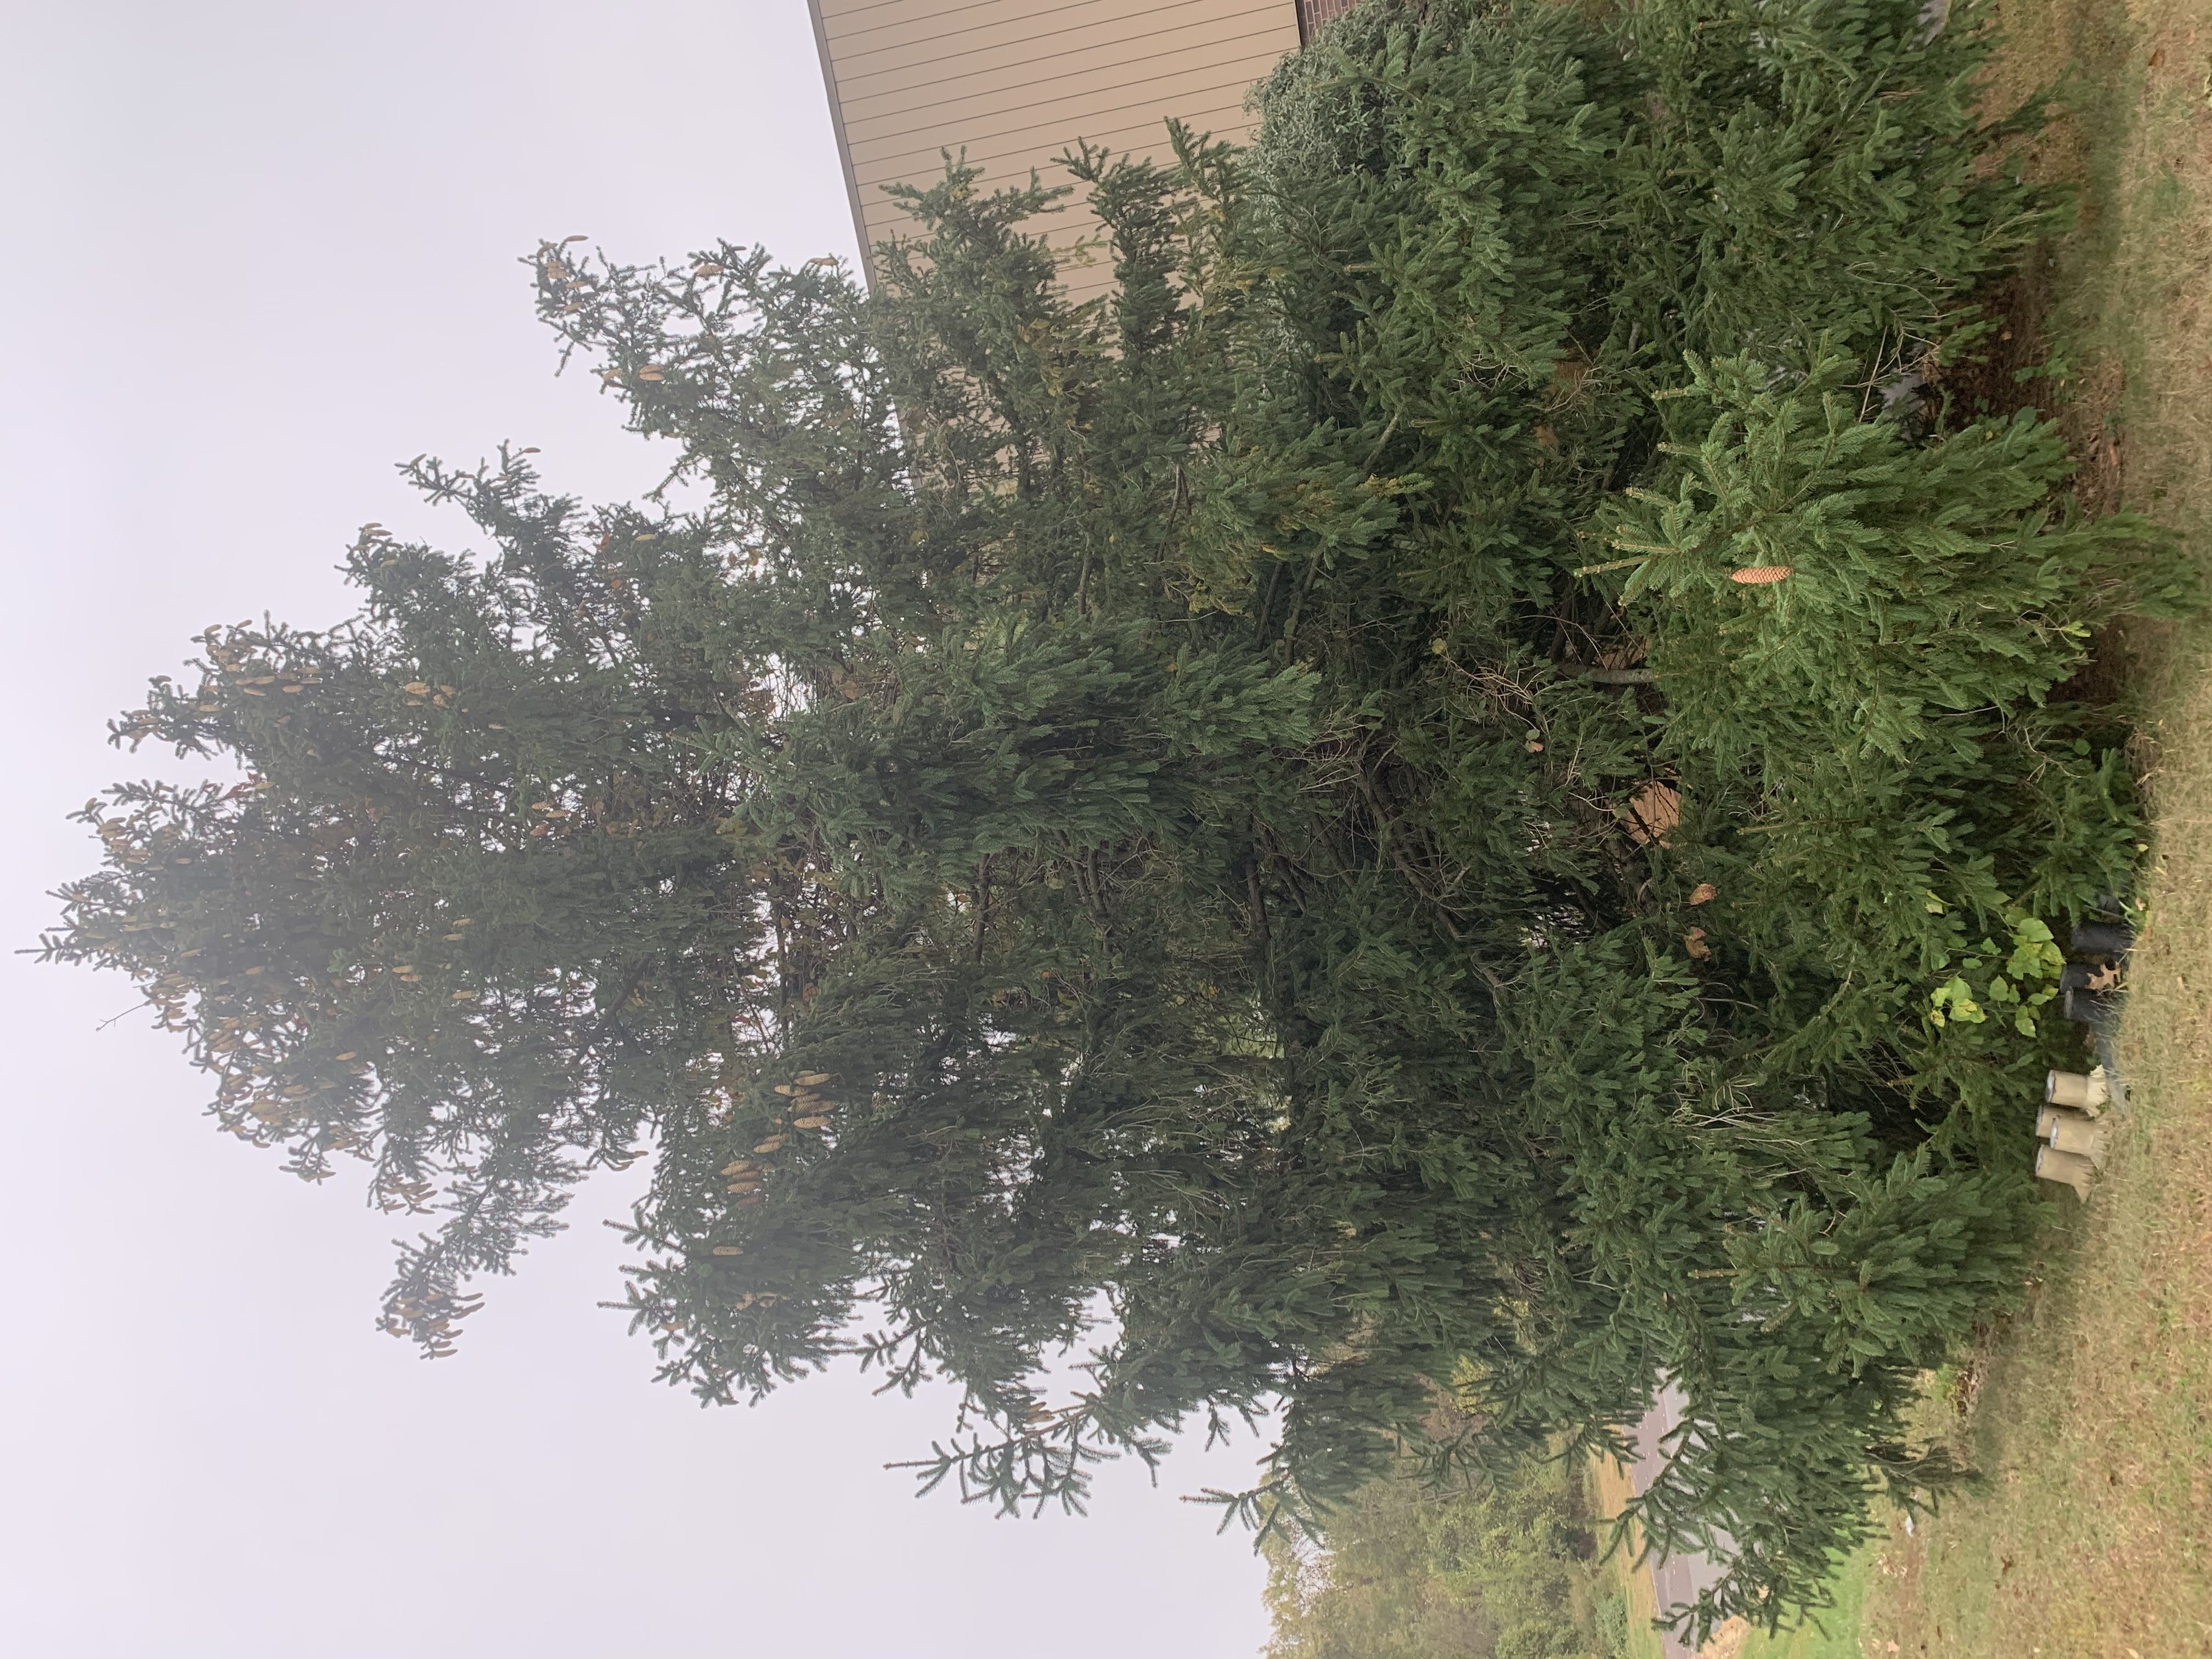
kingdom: Plantae
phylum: Tracheophyta
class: Pinopsida
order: Pinales
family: Pinaceae
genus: Picea
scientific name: Picea abies
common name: Norway spruce
